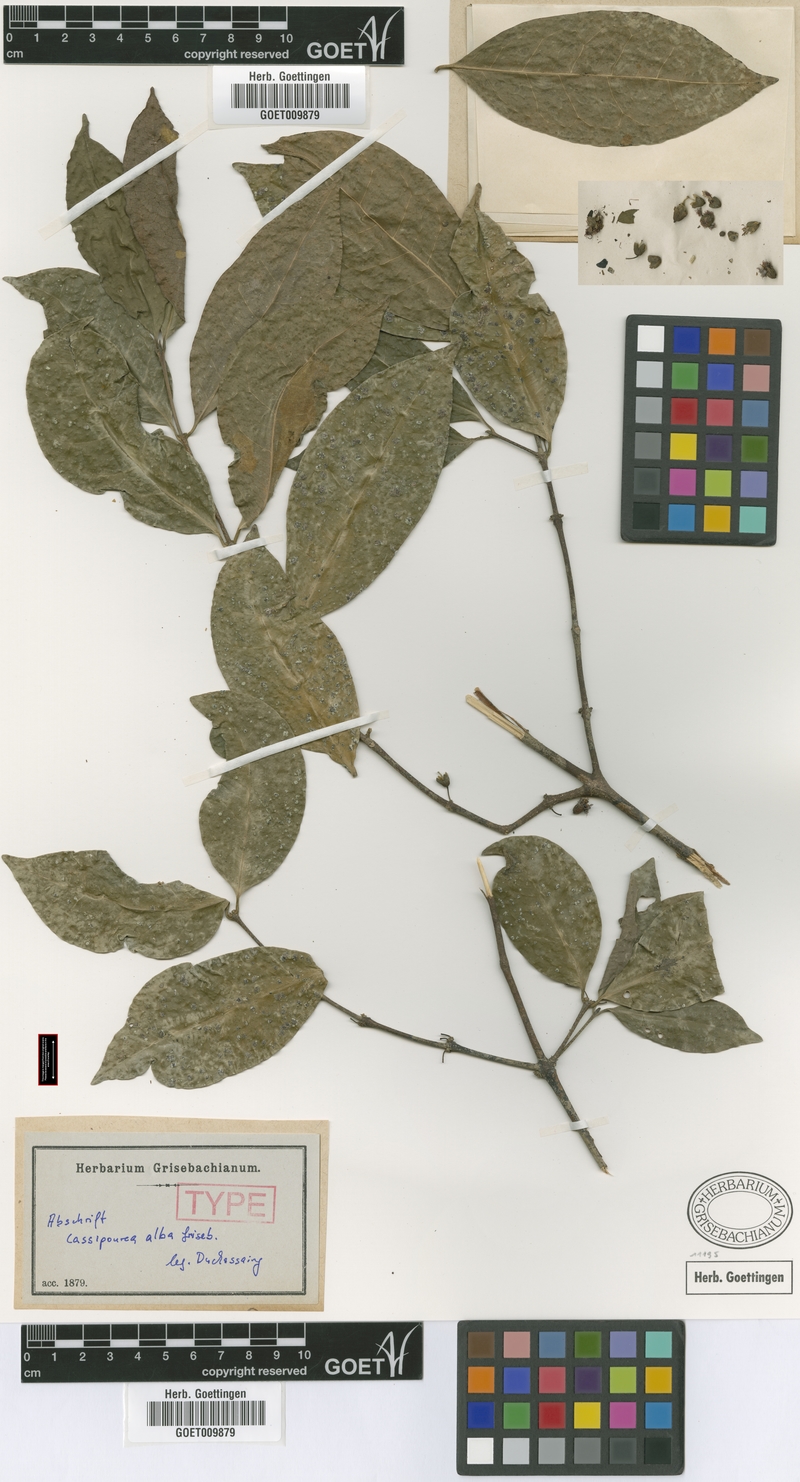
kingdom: Plantae
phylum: Tracheophyta
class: Magnoliopsida
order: Malpighiales
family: Rhizophoraceae
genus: Cassipourea
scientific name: Cassipourea elliptica
